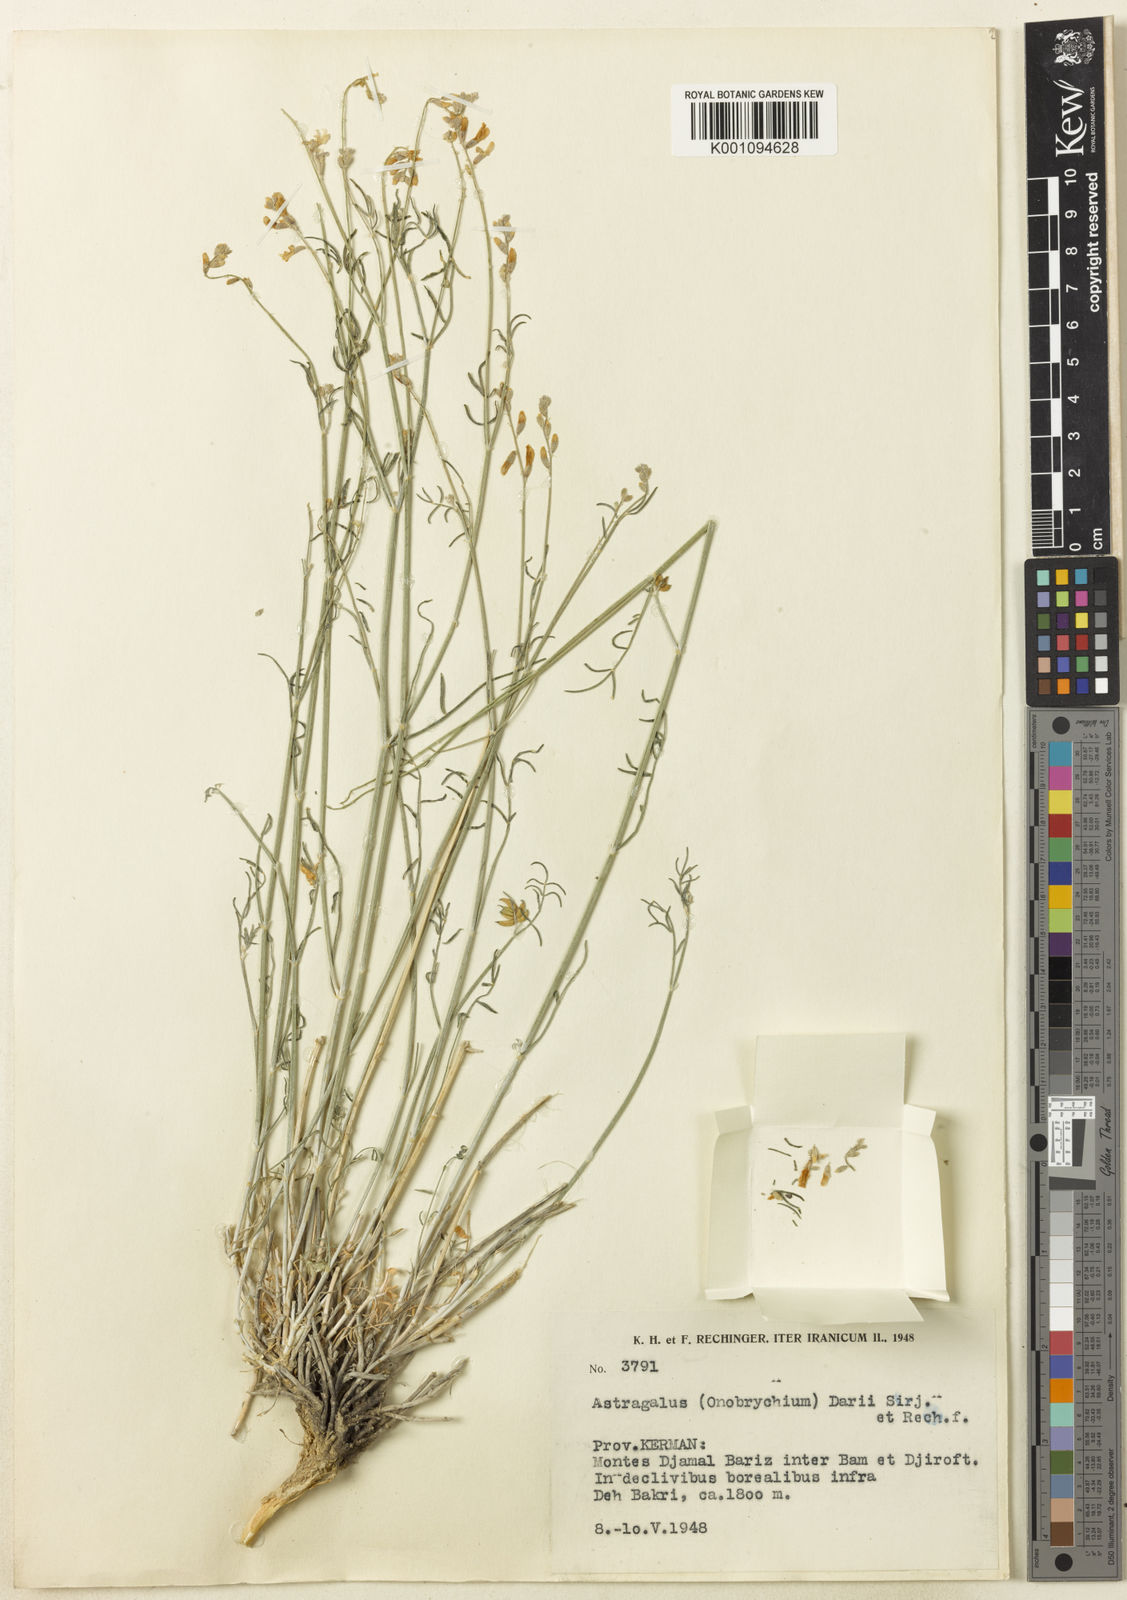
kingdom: Plantae
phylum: Tracheophyta
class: Magnoliopsida
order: Fabales
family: Fabaceae
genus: Astragalus
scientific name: Astragalus
